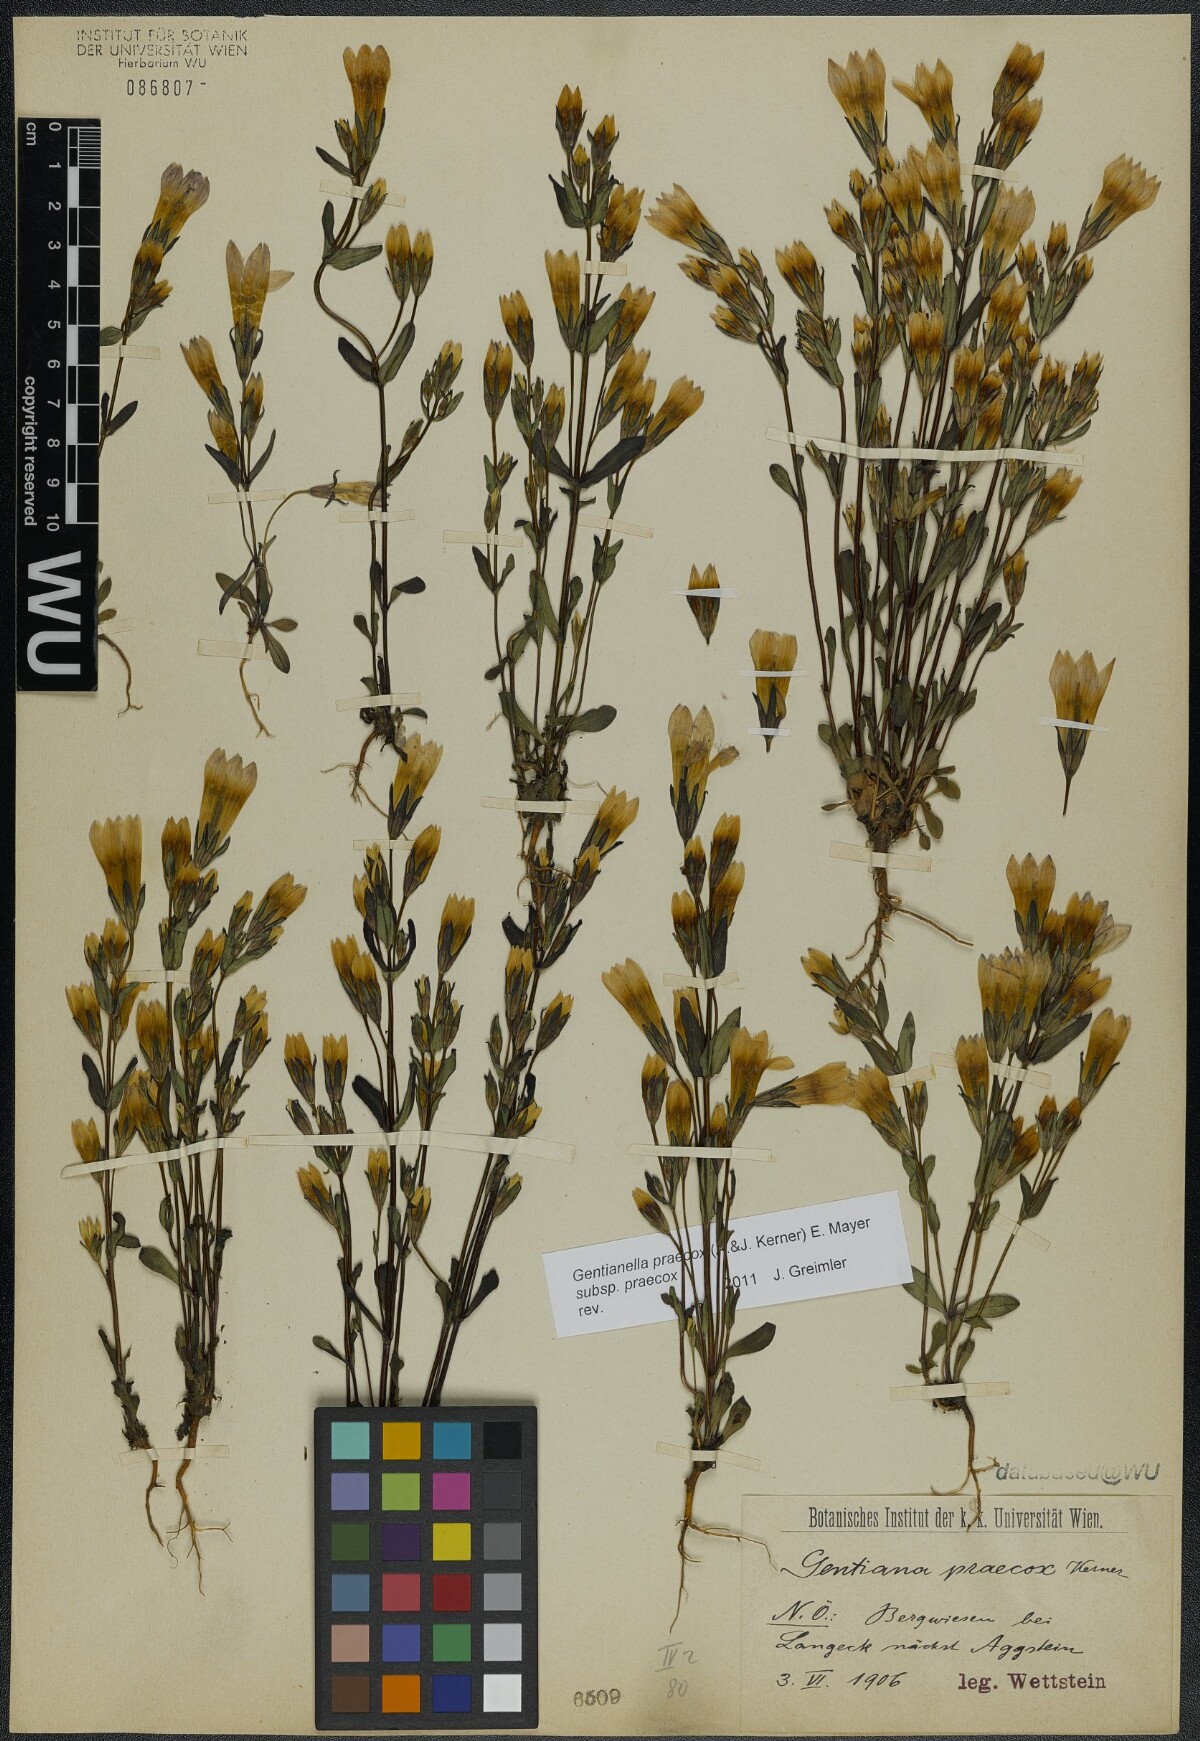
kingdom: Plantae
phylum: Tracheophyta
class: Magnoliopsida
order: Gentianales
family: Gentianaceae
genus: Gentianella
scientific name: Gentianella praecox
